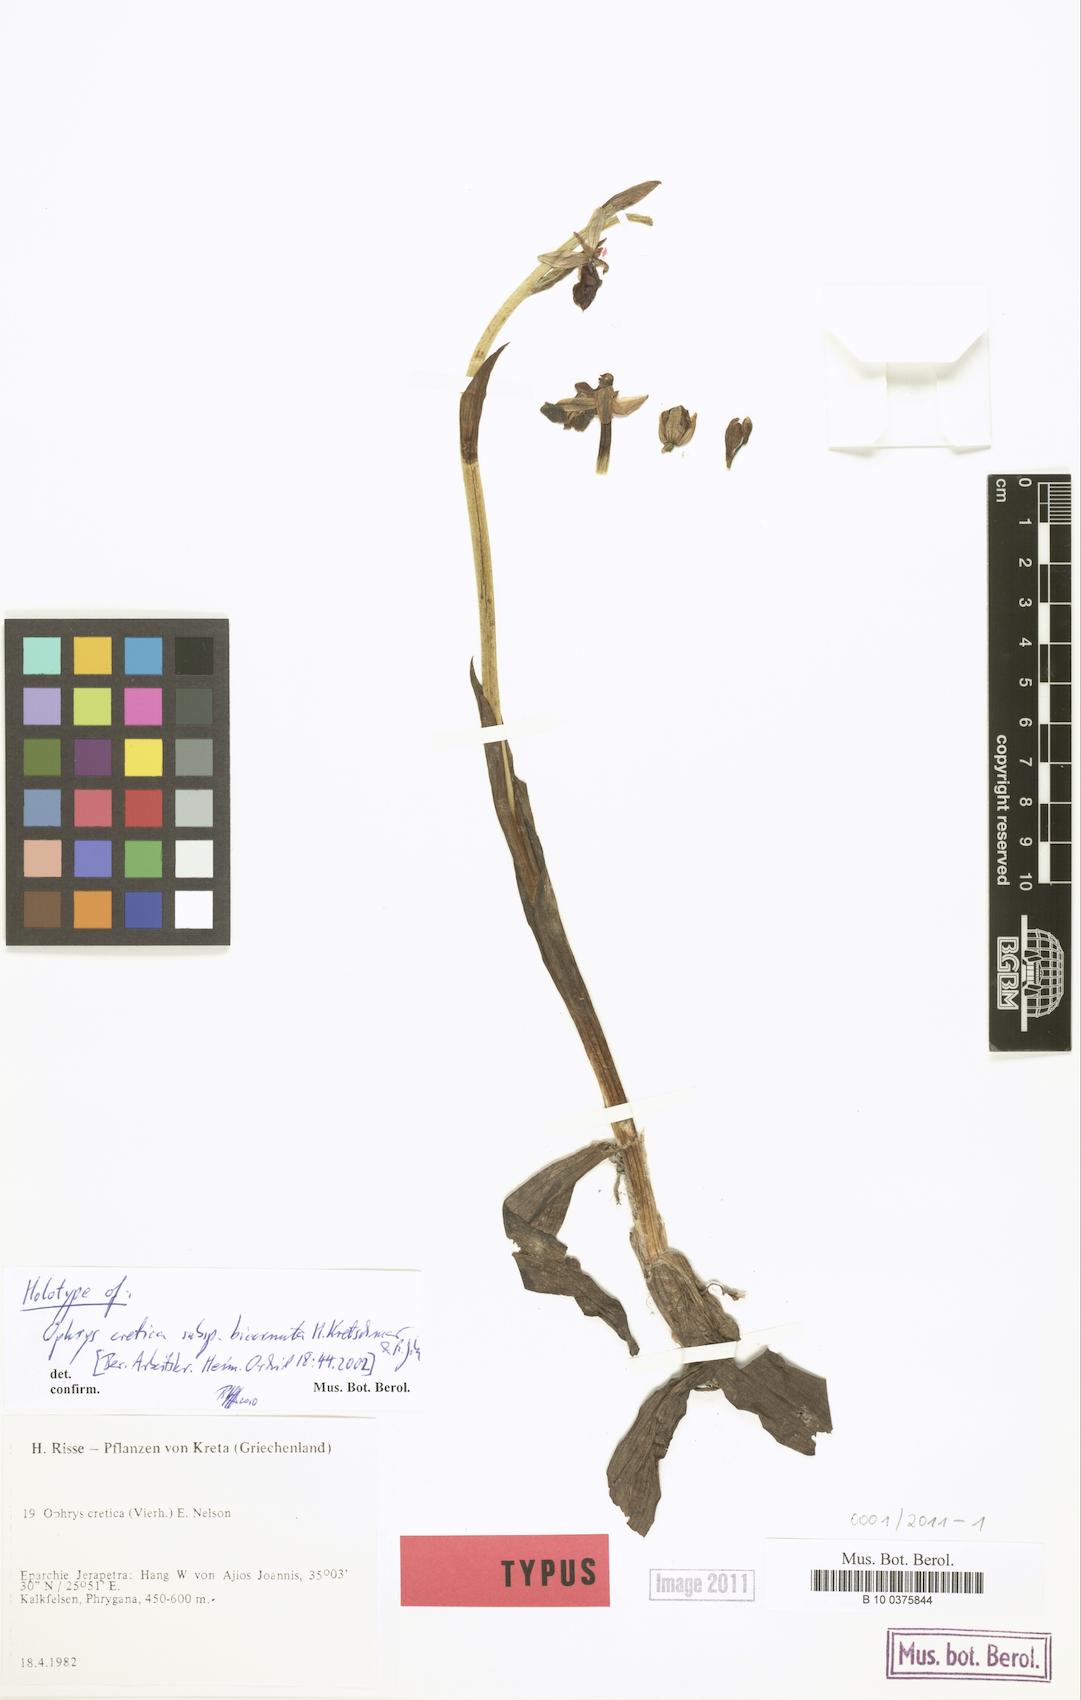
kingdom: Plantae
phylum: Tracheophyta
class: Liliopsida
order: Asparagales
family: Orchidaceae
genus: Ophrys
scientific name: Ophrys cretica
